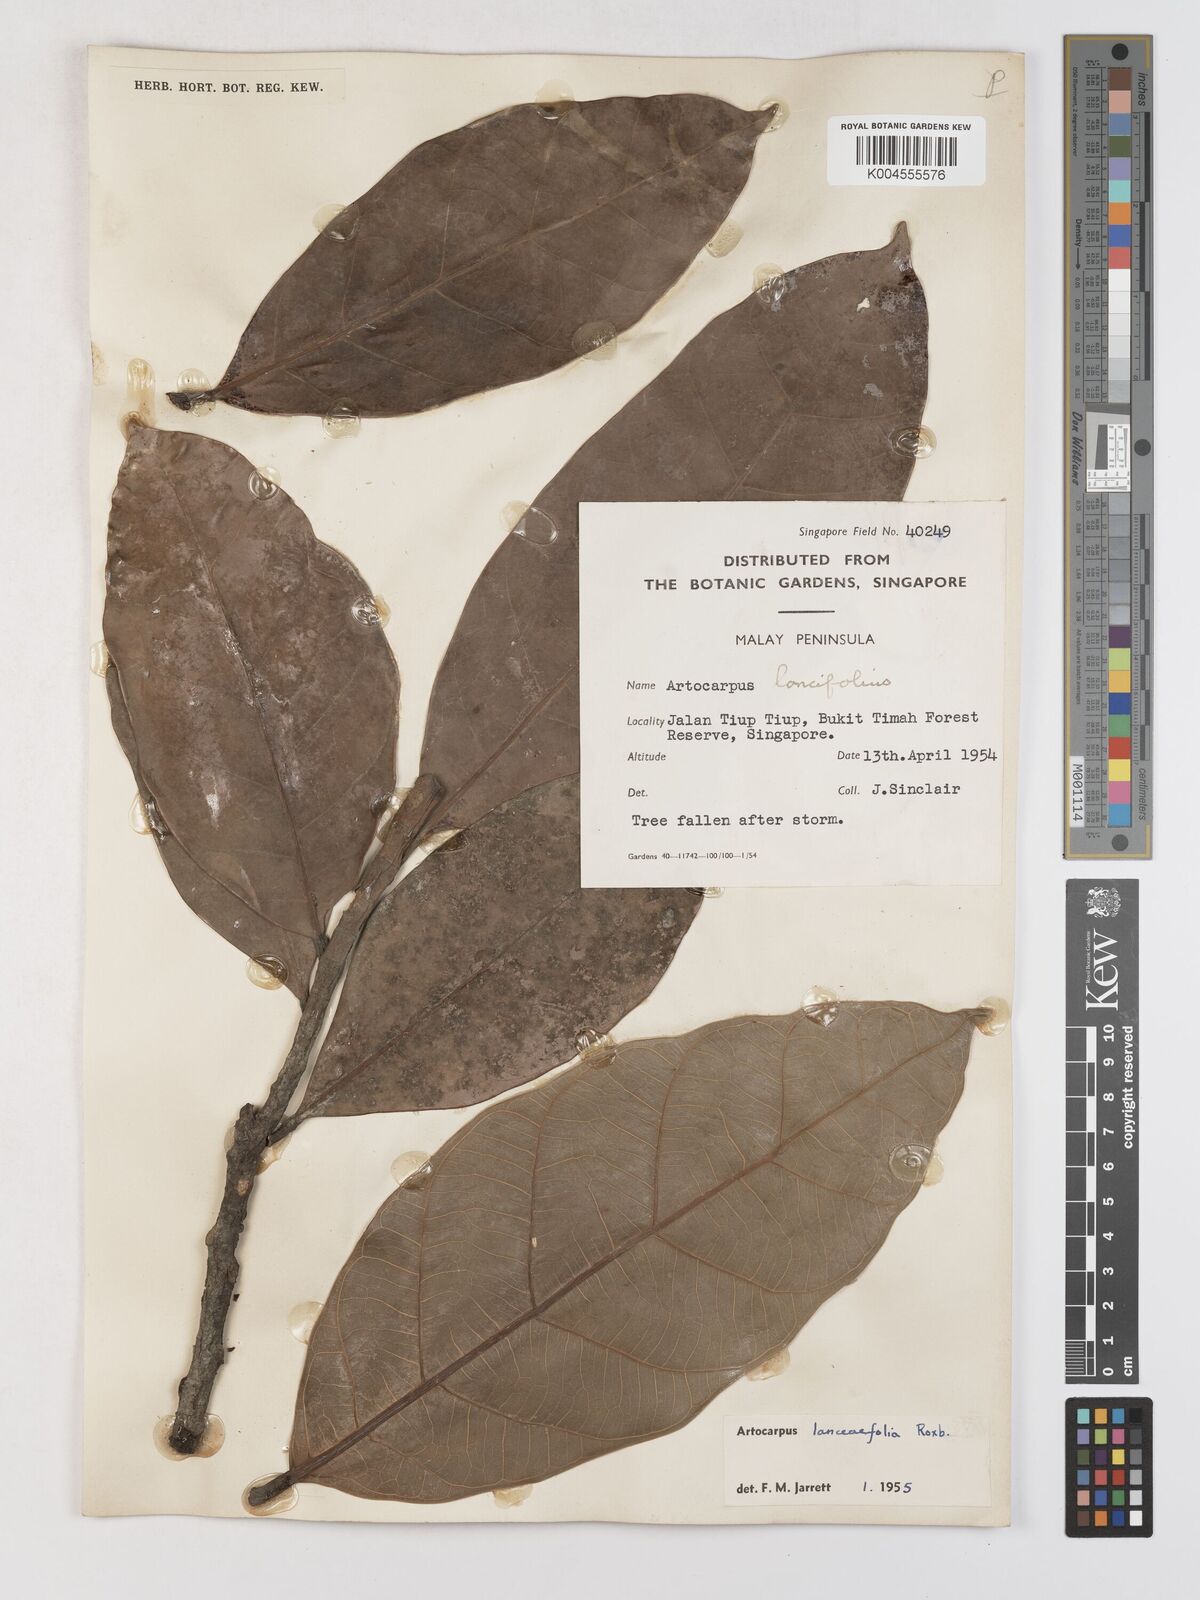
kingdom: Plantae
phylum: Tracheophyta
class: Magnoliopsida
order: Rosales
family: Moraceae
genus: Artocarpus
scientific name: Artocarpus lanceifolius
